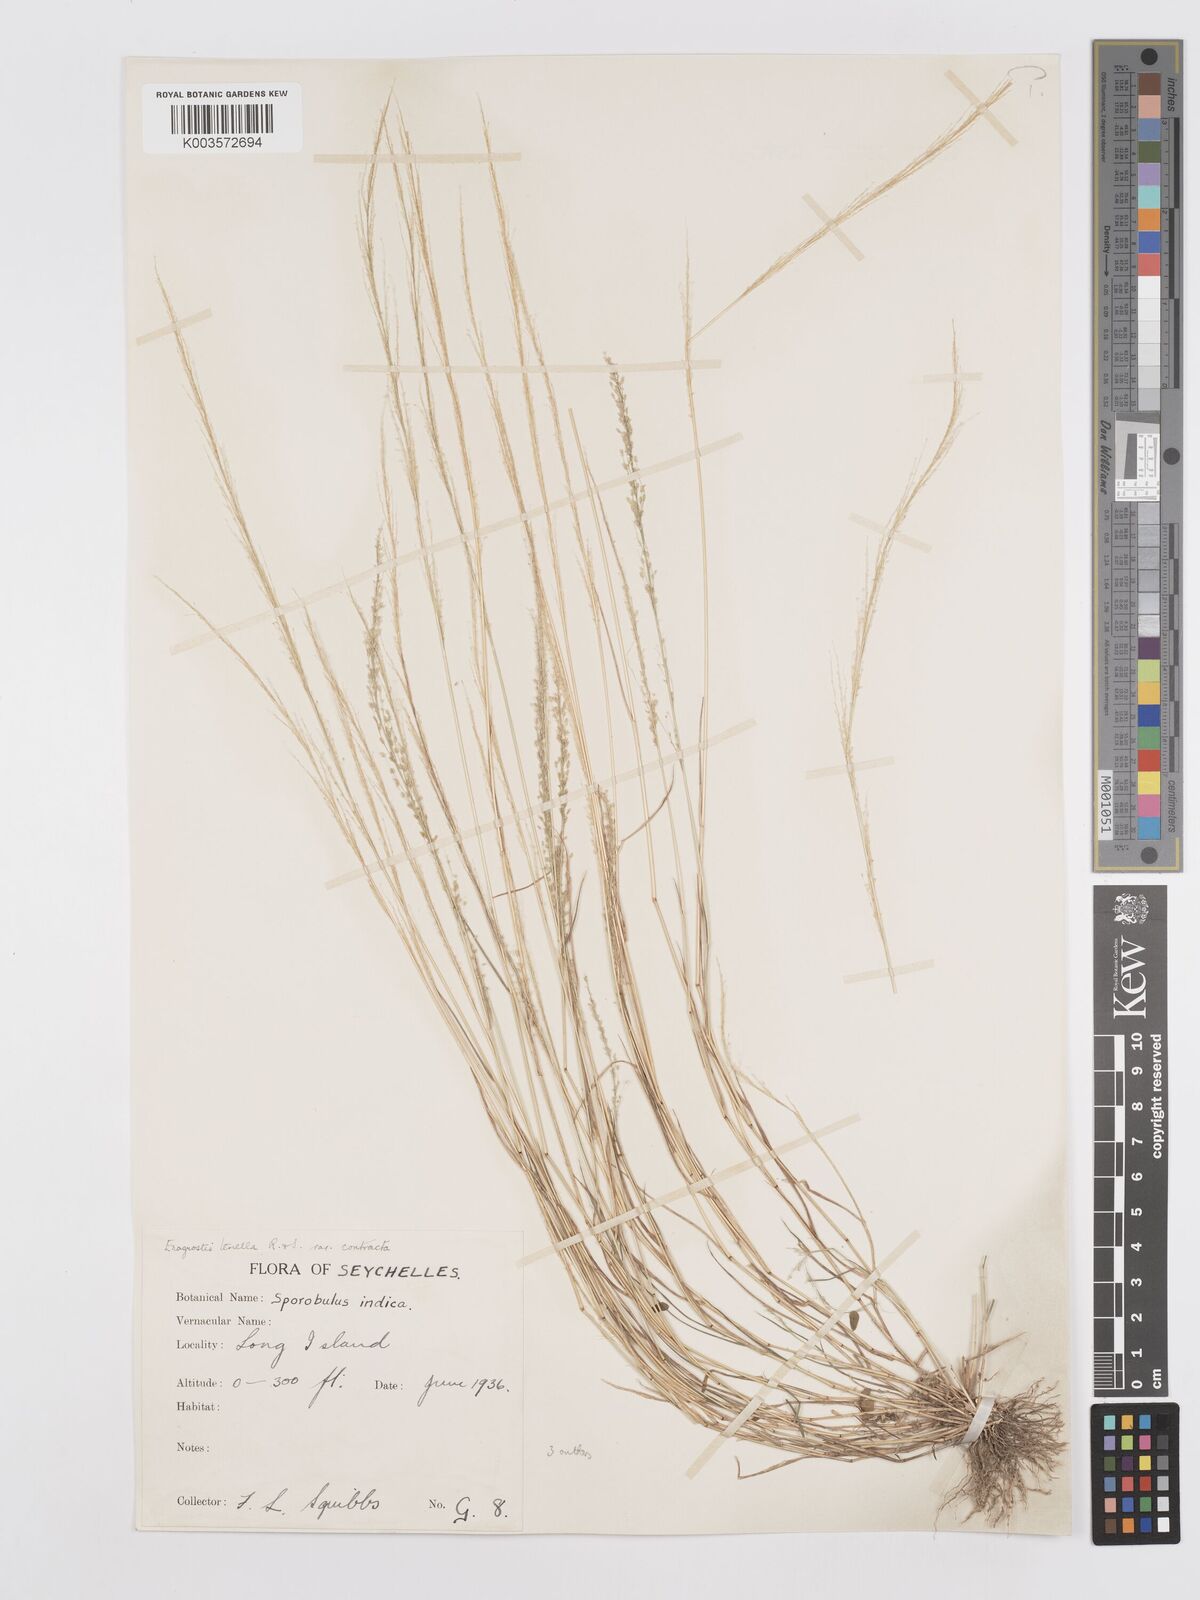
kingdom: Plantae
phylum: Tracheophyta
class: Liliopsida
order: Poales
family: Poaceae
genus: Eragrostis
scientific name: Eragrostis tenella
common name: Japanese lovegrass
